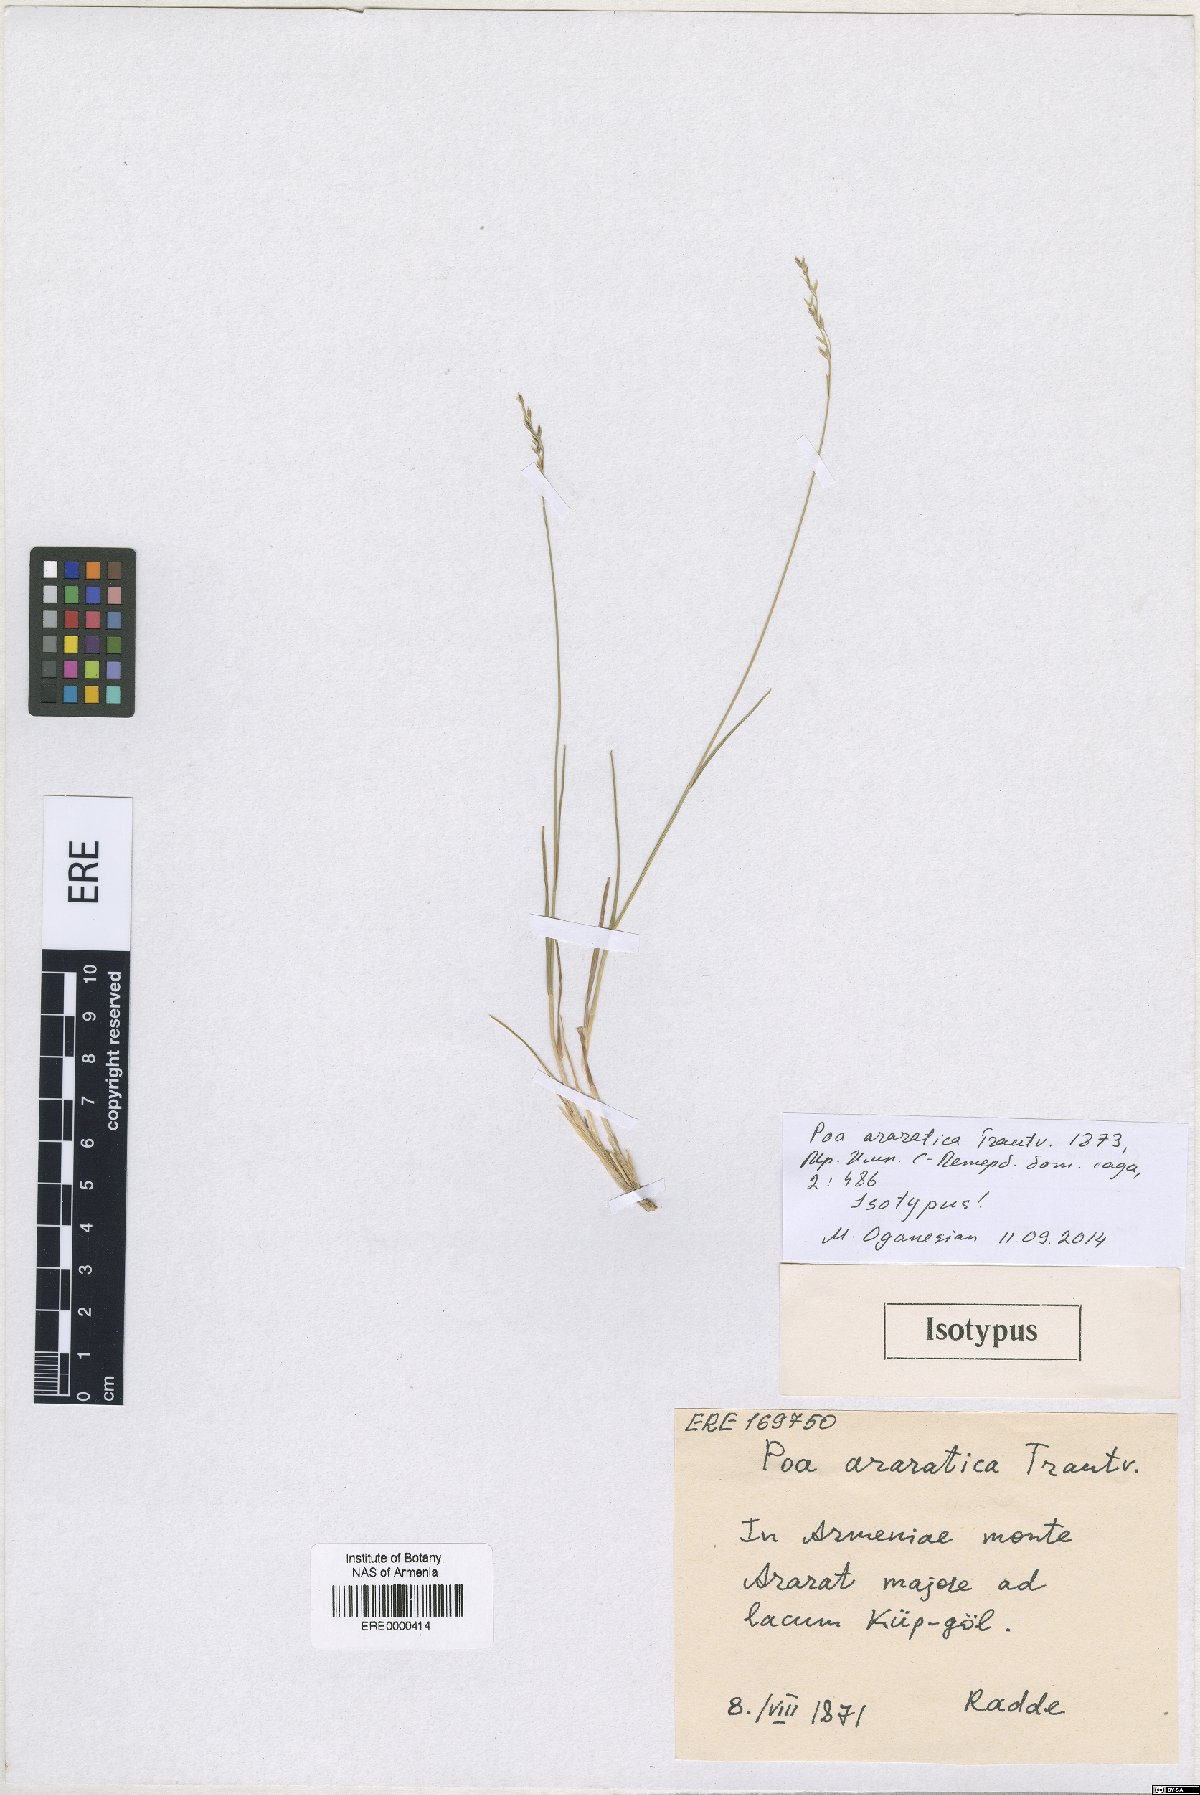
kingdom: Plantae
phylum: Tracheophyta
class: Liliopsida
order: Poales
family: Poaceae
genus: Poa
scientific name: Poa araratica
